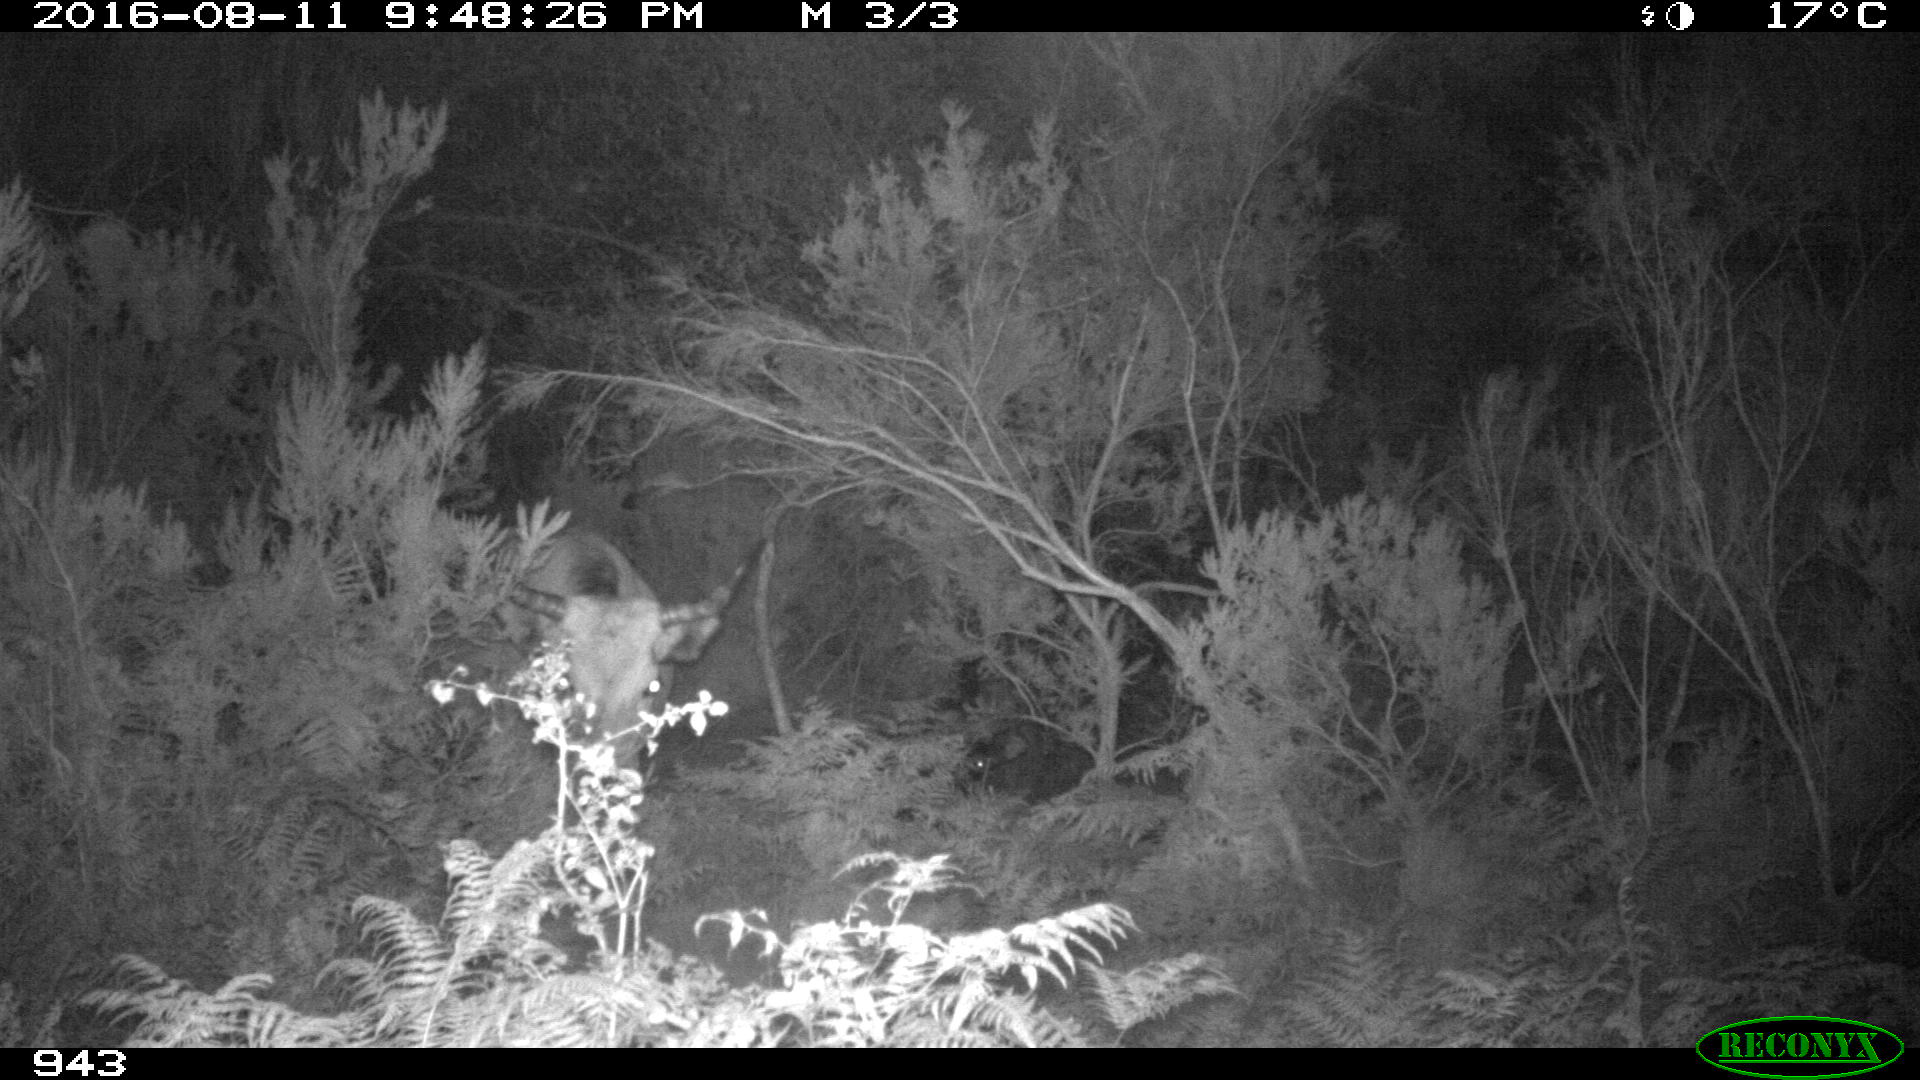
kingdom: Animalia
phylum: Chordata
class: Mammalia
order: Artiodactyla
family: Bovidae
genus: Bos
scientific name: Bos taurus
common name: Domesticated cattle
